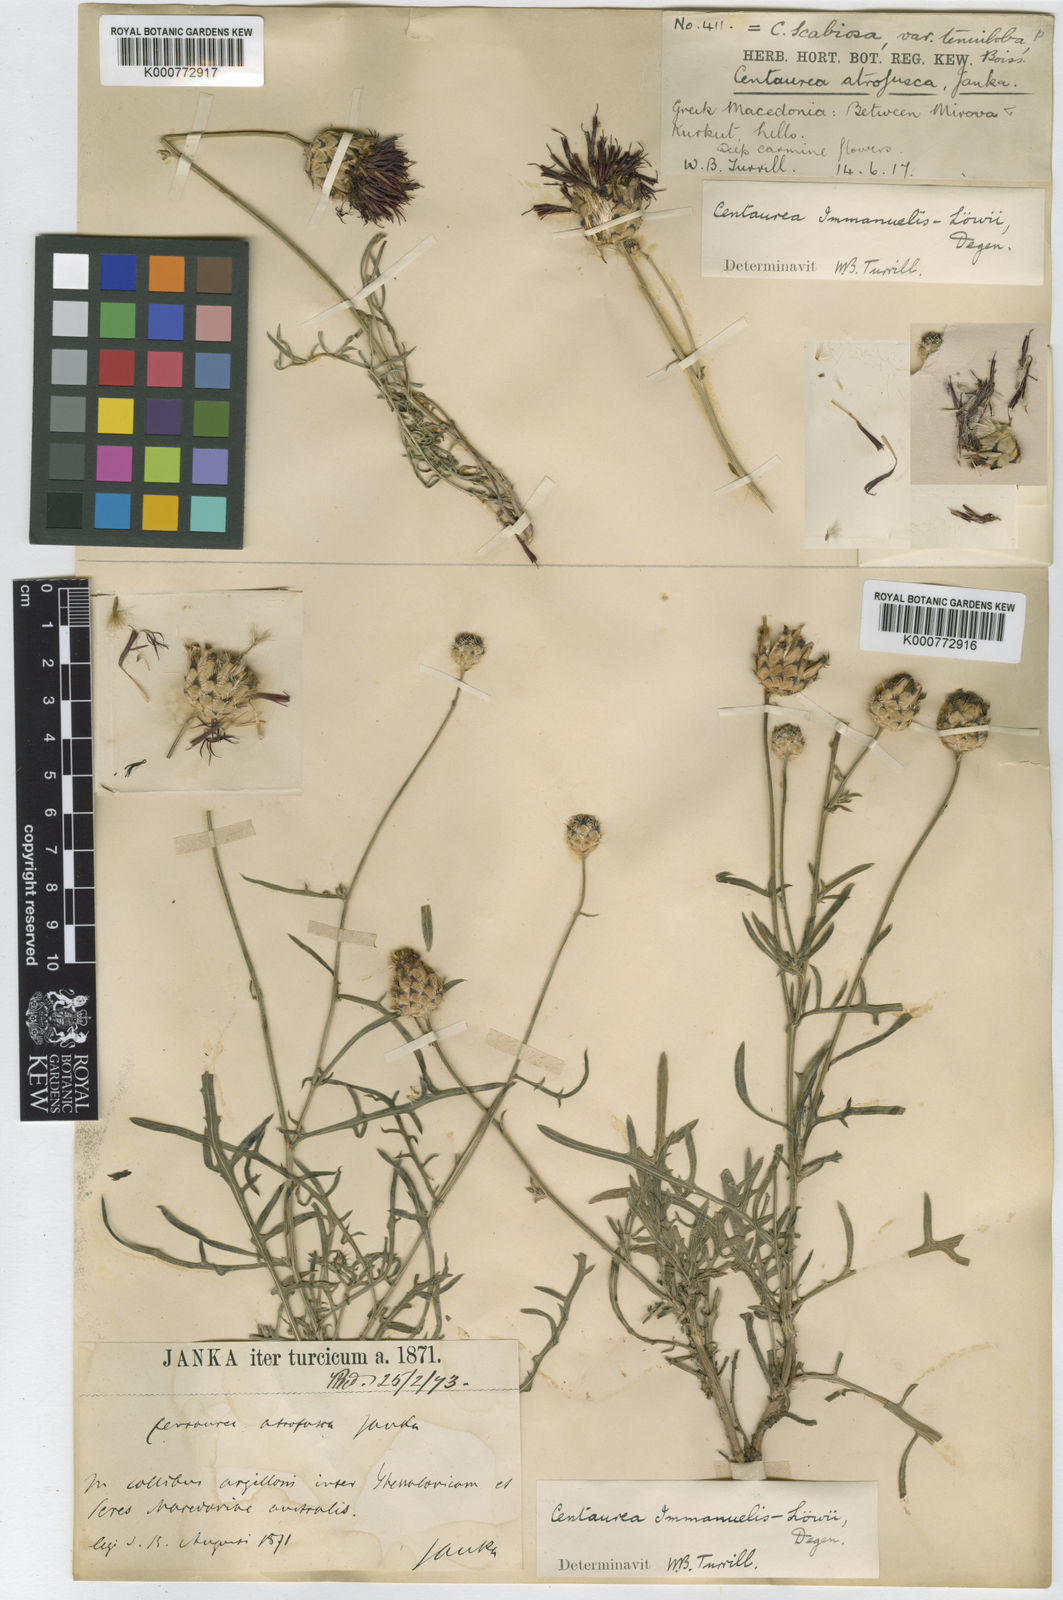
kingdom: Plantae
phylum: Tracheophyta
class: Magnoliopsida
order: Asterales
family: Asteraceae
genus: Centaurea
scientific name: Centaurea
